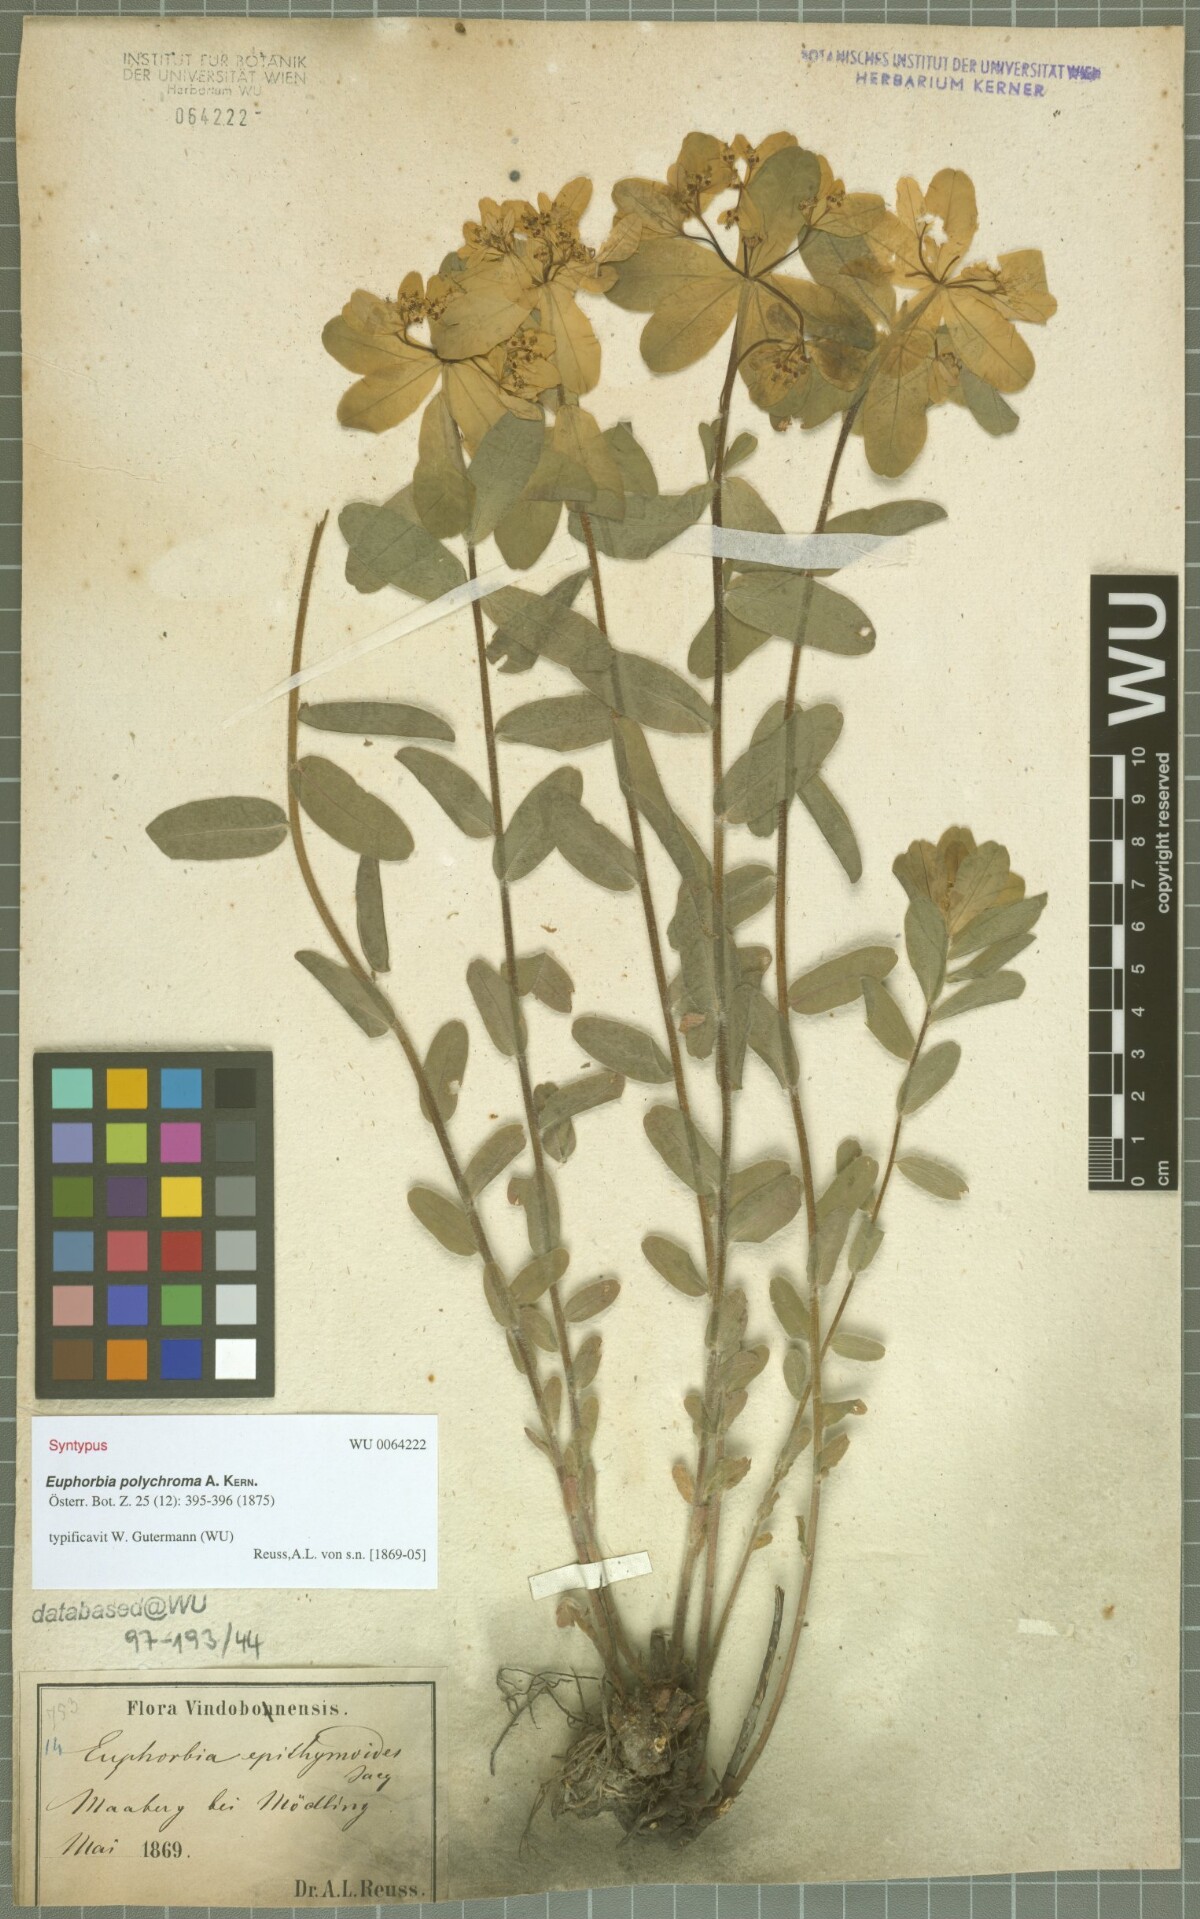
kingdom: Plantae
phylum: Tracheophyta
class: Magnoliopsida
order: Malpighiales
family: Euphorbiaceae
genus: Euphorbia
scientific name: Euphorbia epithymoides
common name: Cushion spurge
